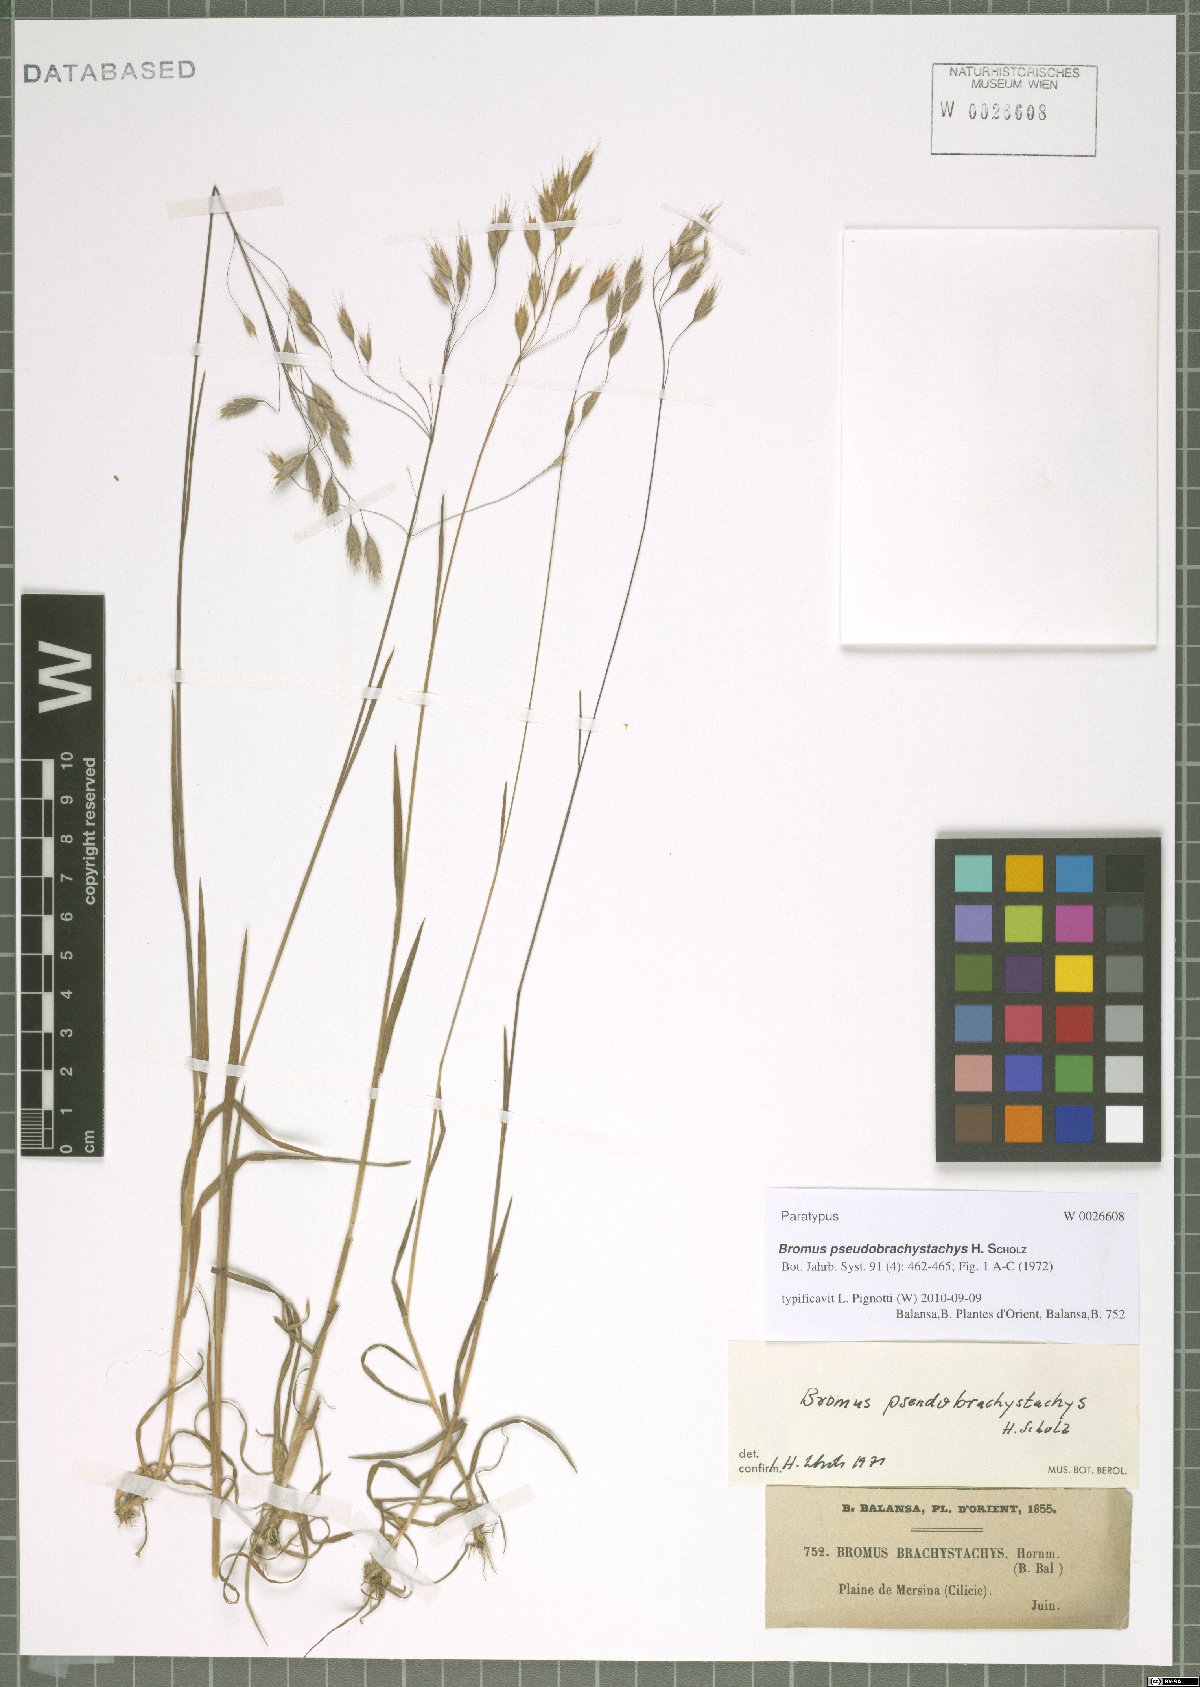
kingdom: Plantae
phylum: Tracheophyta
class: Liliopsida
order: Poales
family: Poaceae
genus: Bromus
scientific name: Bromus pseudobrachystachys
